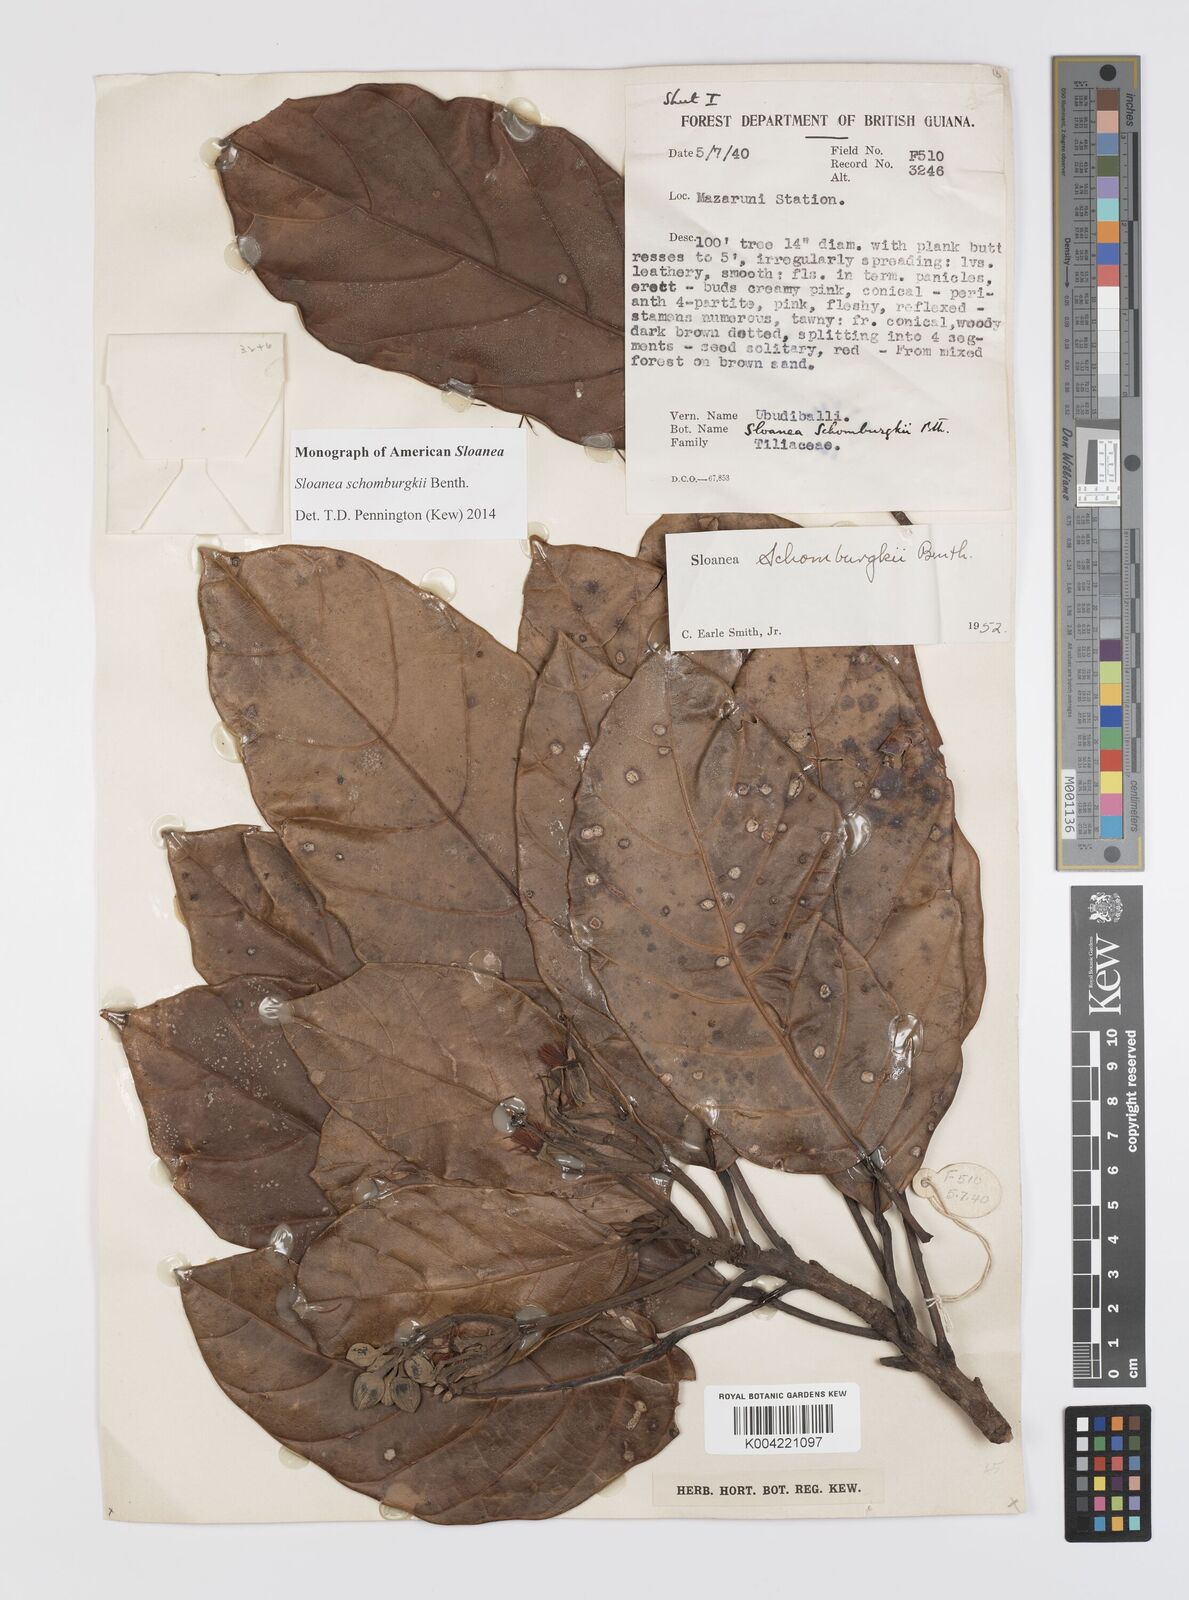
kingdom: Plantae
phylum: Tracheophyta
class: Magnoliopsida
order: Oxalidales
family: Elaeocarpaceae
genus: Sloanea
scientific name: Sloanea schomburgkii
